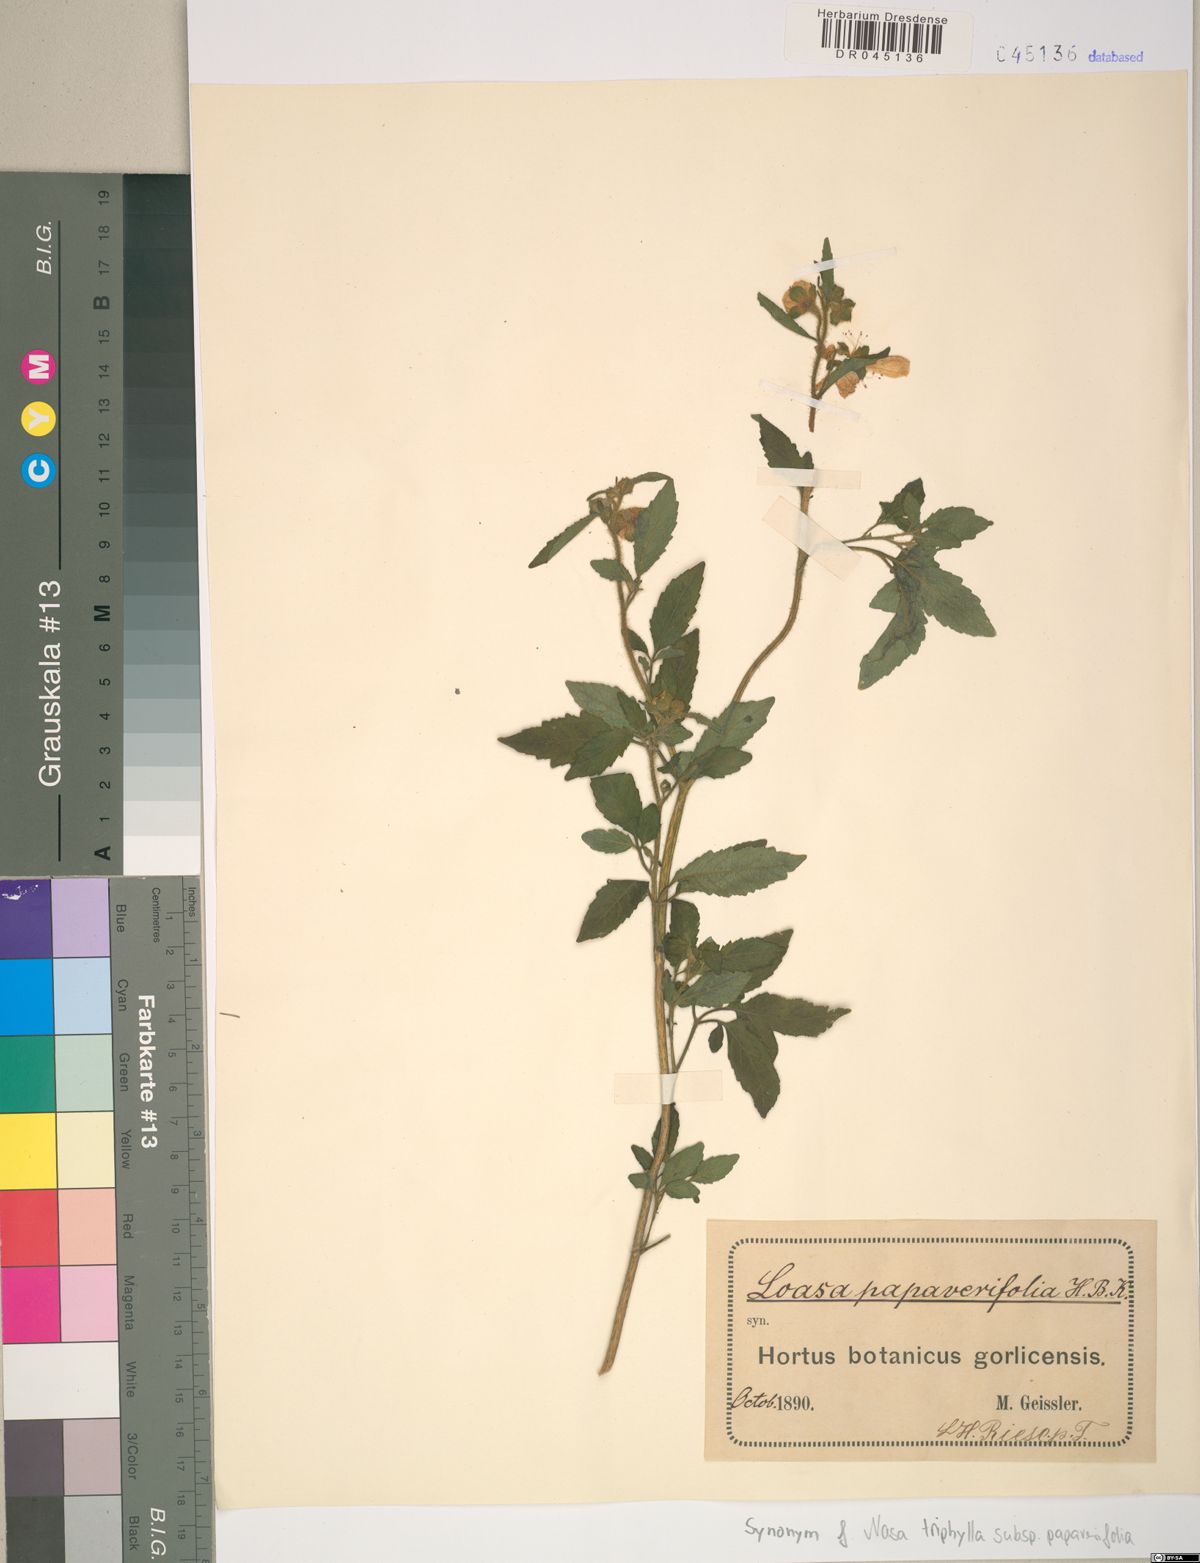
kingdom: Plantae
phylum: Tracheophyta
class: Magnoliopsida
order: Cornales
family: Loasaceae
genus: Nasa
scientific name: Nasa triphylla
